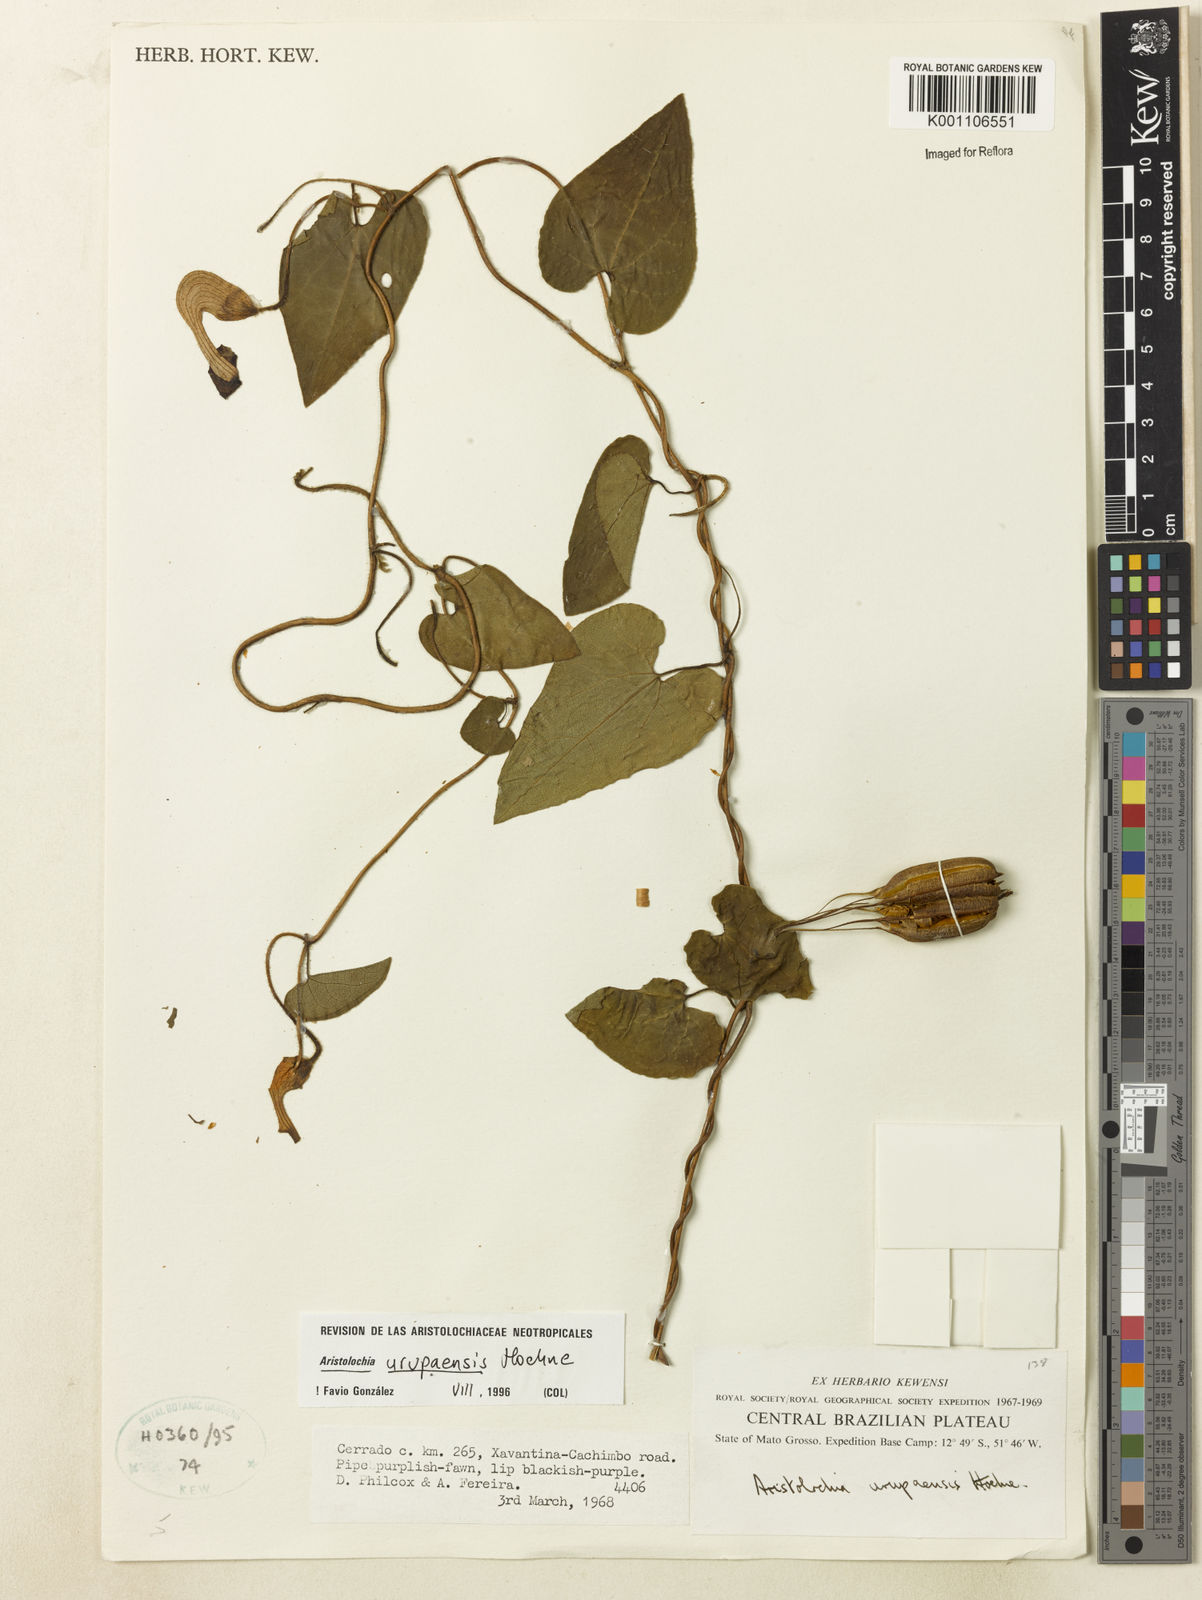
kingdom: Plantae
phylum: Tracheophyta
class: Magnoliopsida
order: Piperales
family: Aristolochiaceae
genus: Aristolochia
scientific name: Aristolochia urupaensis
